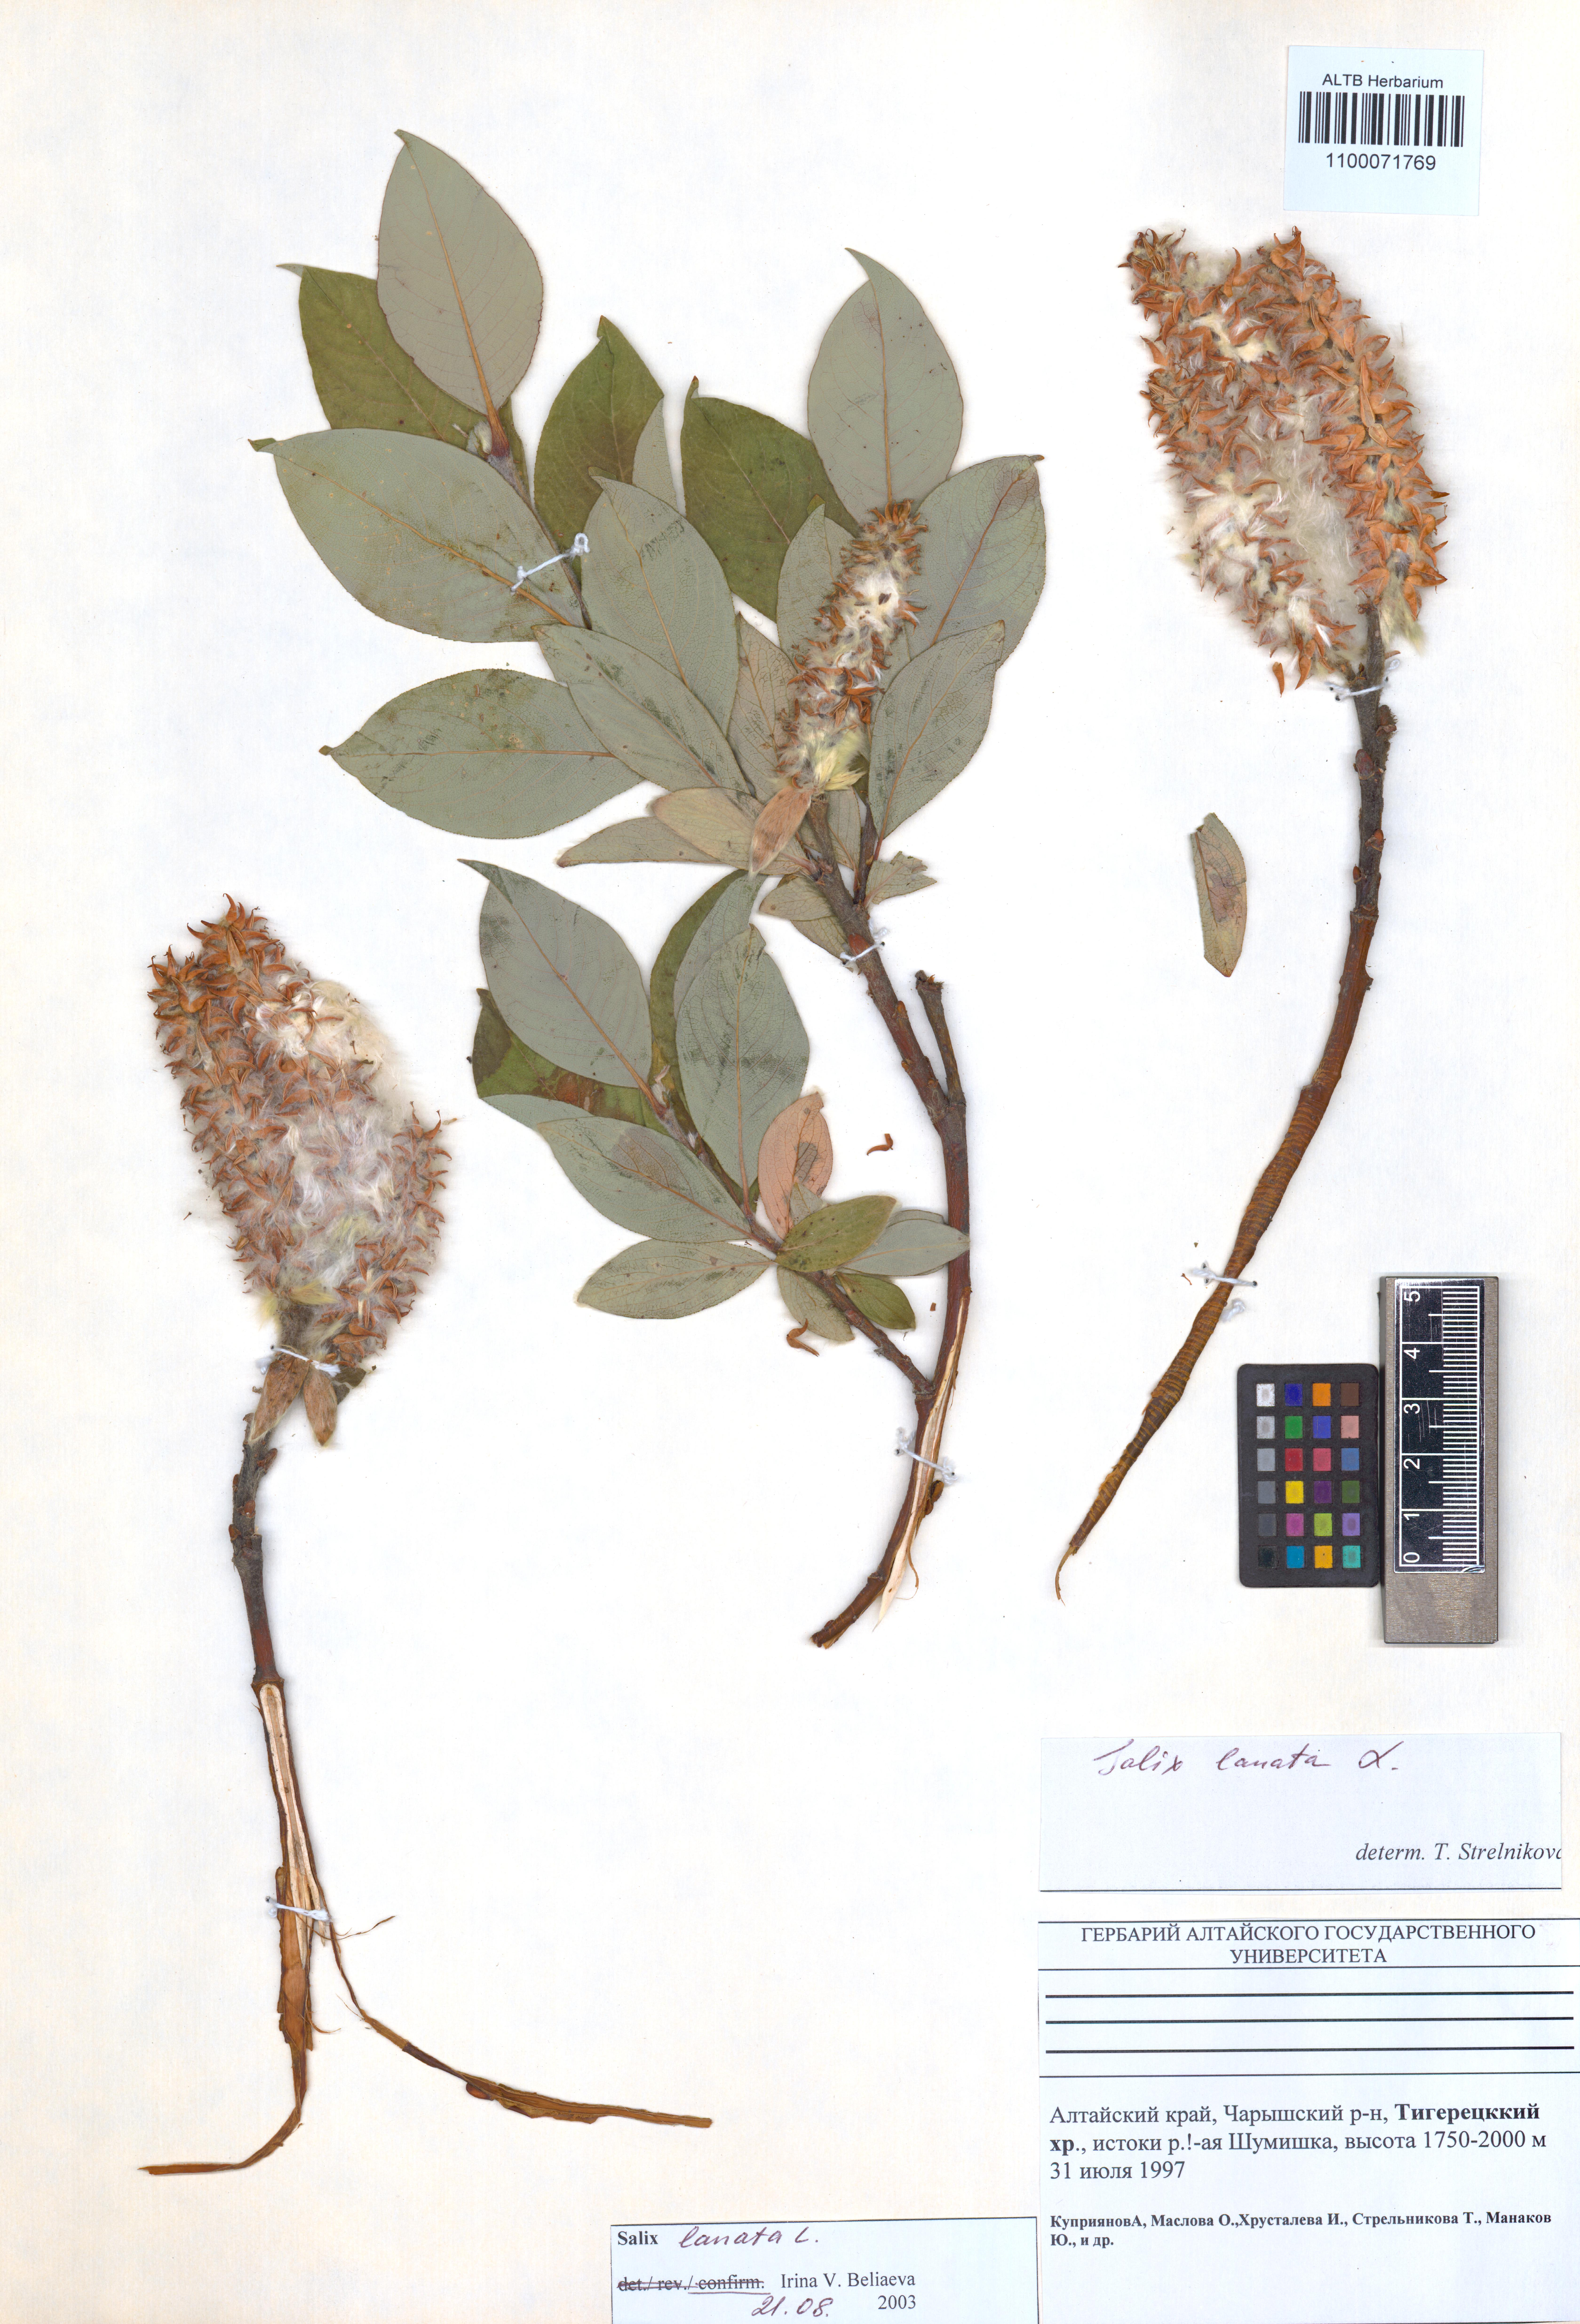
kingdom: Plantae
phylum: Tracheophyta
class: Magnoliopsida
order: Malpighiales
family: Salicaceae
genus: Salix
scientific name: Salix lanata
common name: Woolly willow
